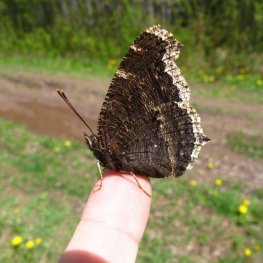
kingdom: Animalia
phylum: Arthropoda
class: Insecta
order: Lepidoptera
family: Nymphalidae
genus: Nymphalis
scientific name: Nymphalis antiopa
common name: Mourning Cloak
